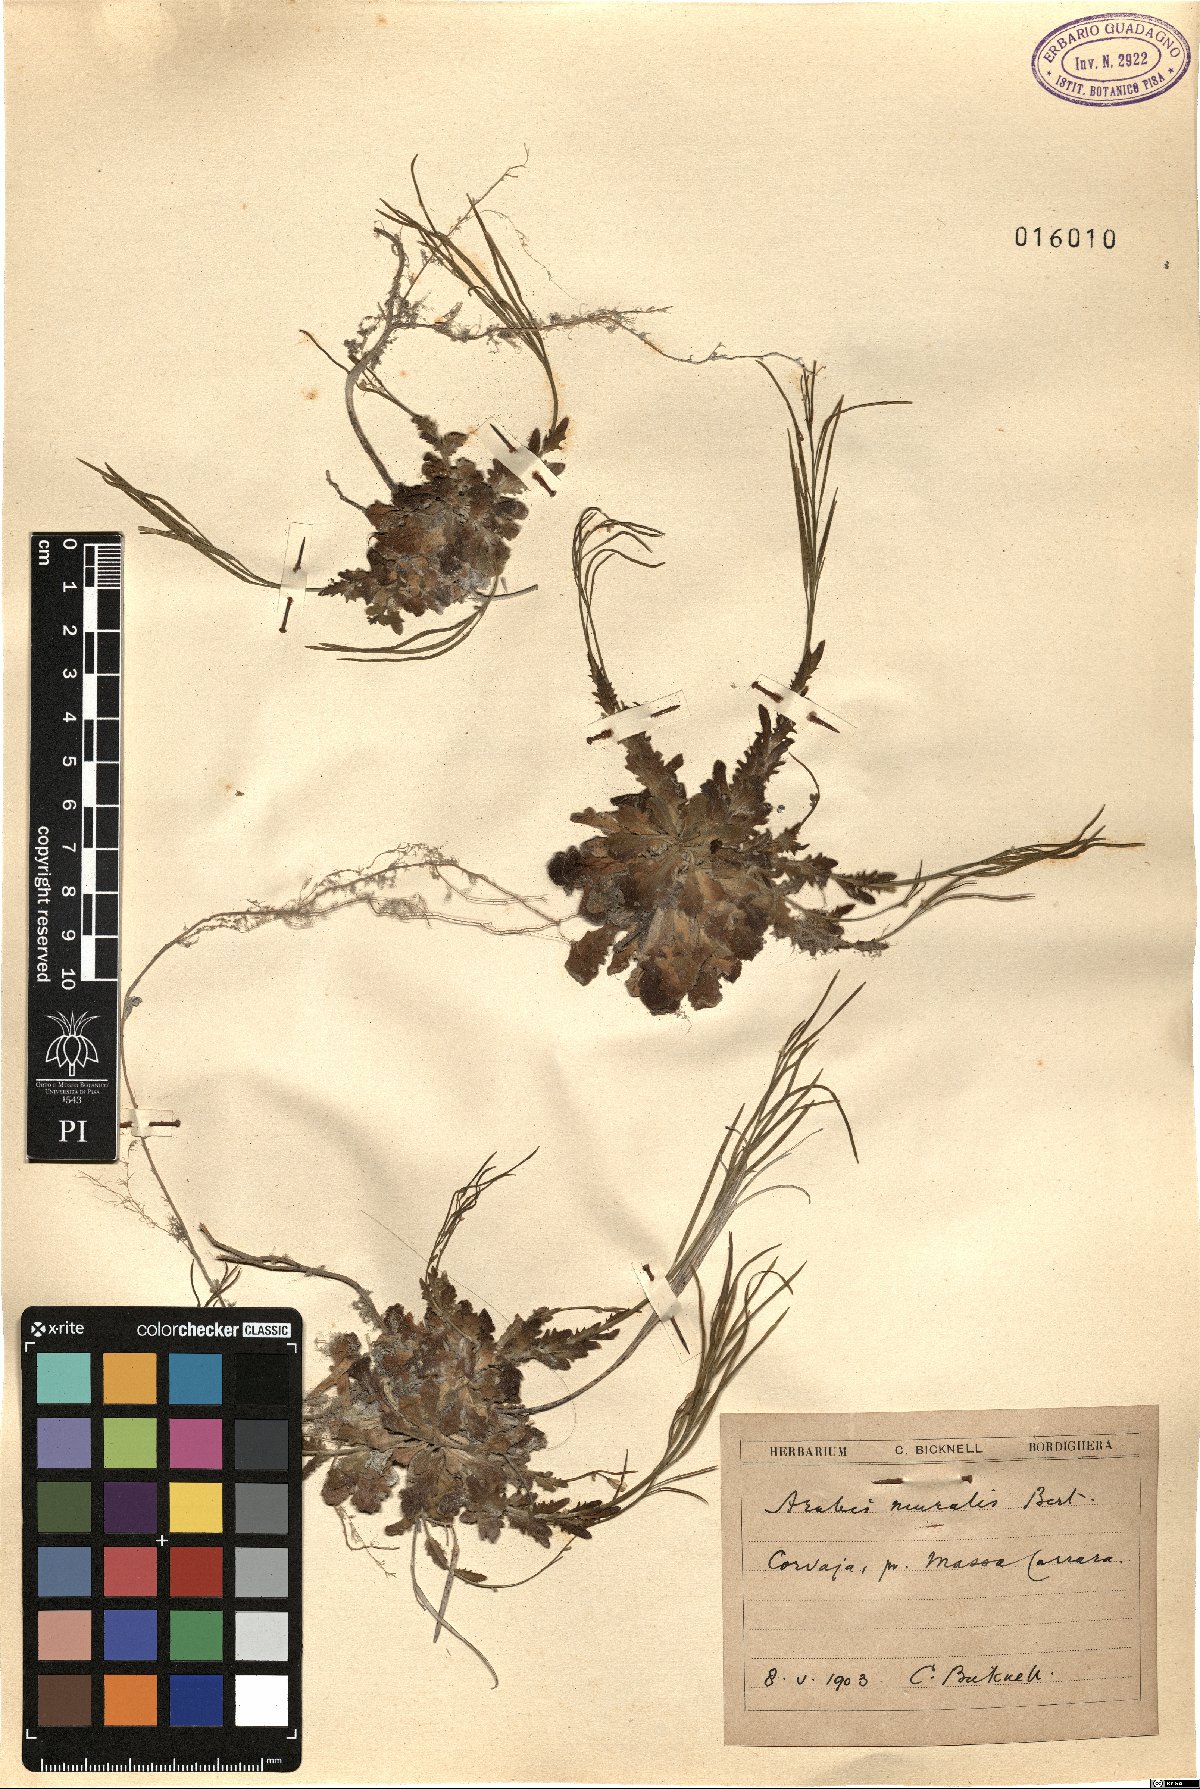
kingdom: Plantae
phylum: Tracheophyta
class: Magnoliopsida
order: Brassicales
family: Brassicaceae
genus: Arabis
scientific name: Arabis collina
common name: Rosy cress
